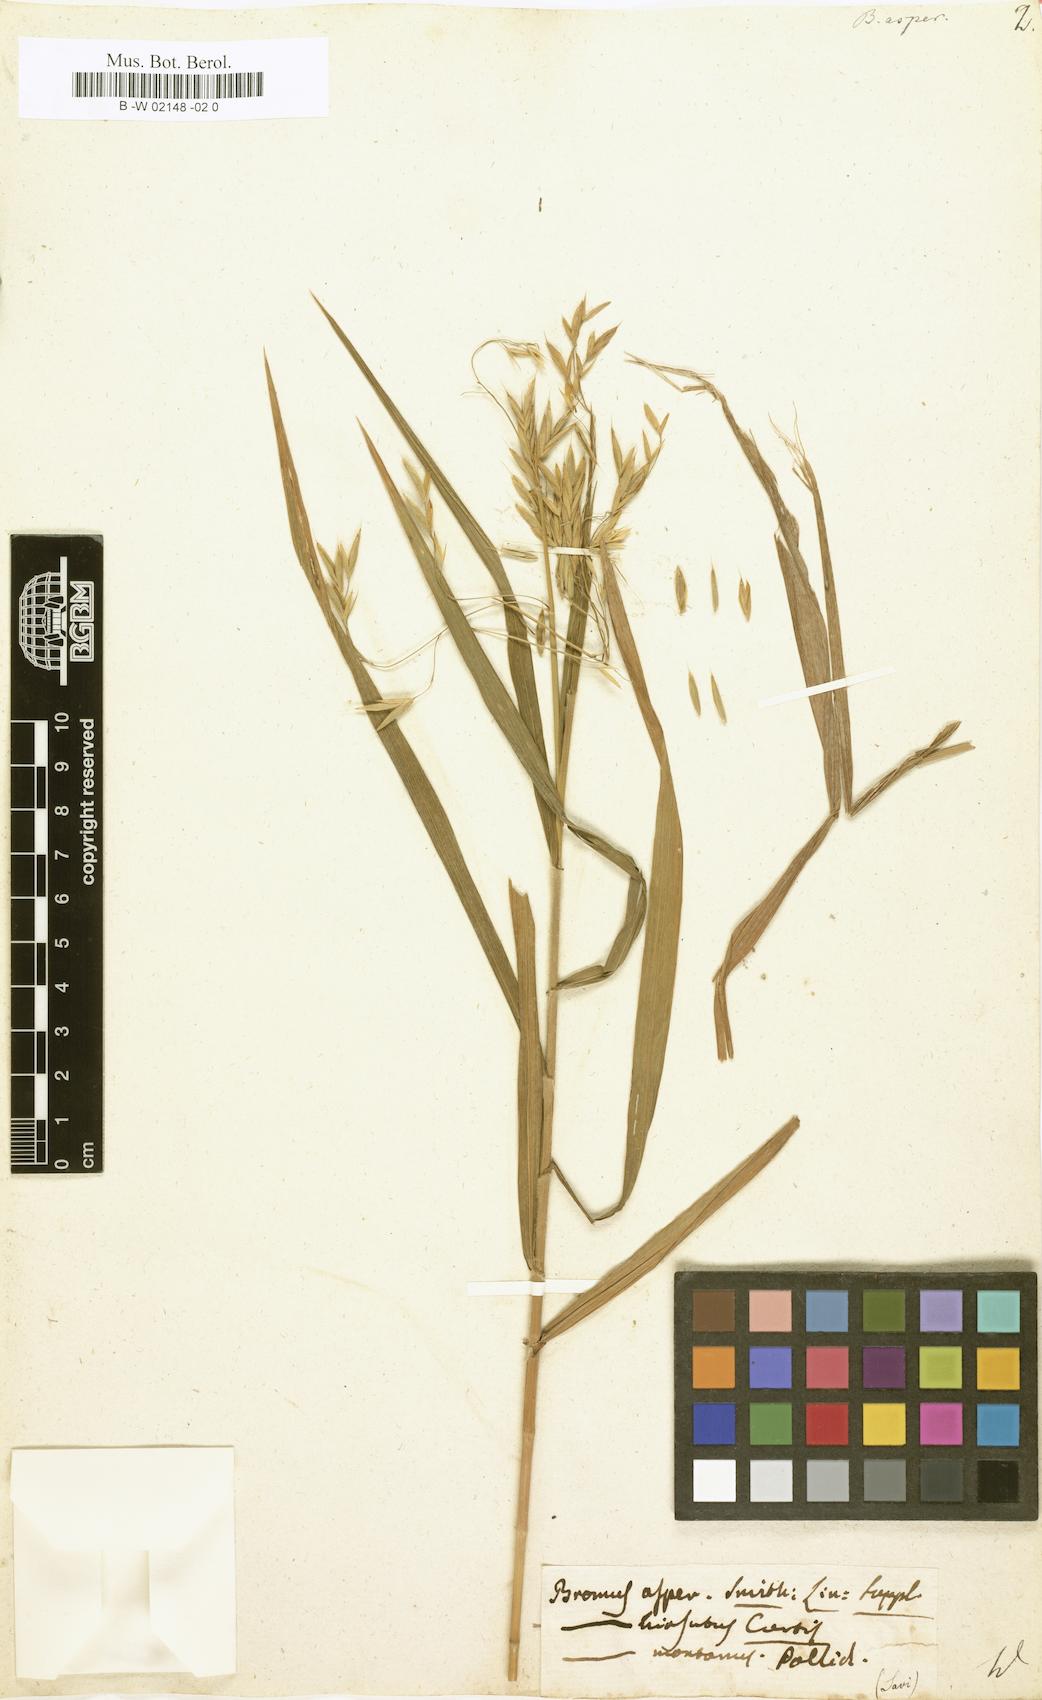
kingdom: Plantae
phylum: Tracheophyta
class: Liliopsida
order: Poales
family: Poaceae
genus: Bromus
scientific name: Bromus
